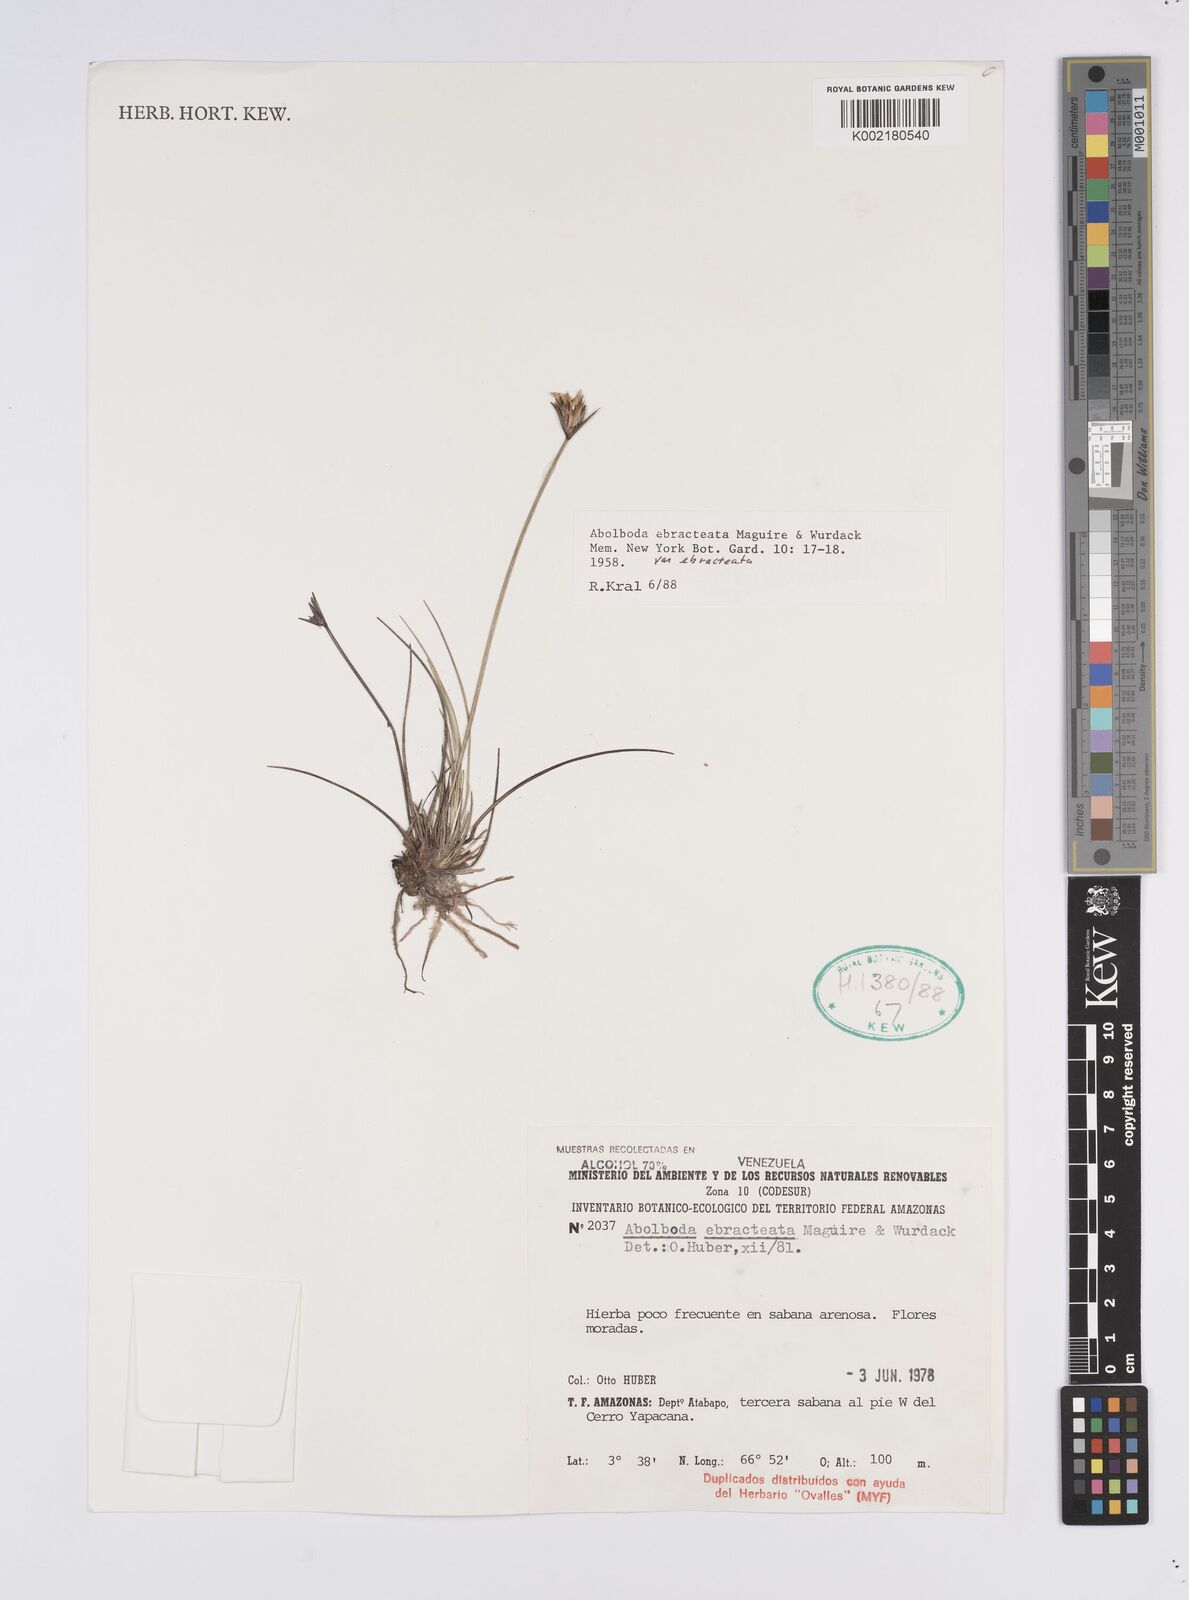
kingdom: Plantae
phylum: Tracheophyta
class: Liliopsida
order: Poales
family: Xyridaceae
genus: Abolboda
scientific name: Abolboda ebracteata
